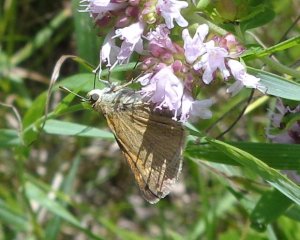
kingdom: Animalia
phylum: Arthropoda
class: Insecta
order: Lepidoptera
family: Hesperiidae
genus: Polites
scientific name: Polites themistocles
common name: Tawny-edged Skipper
